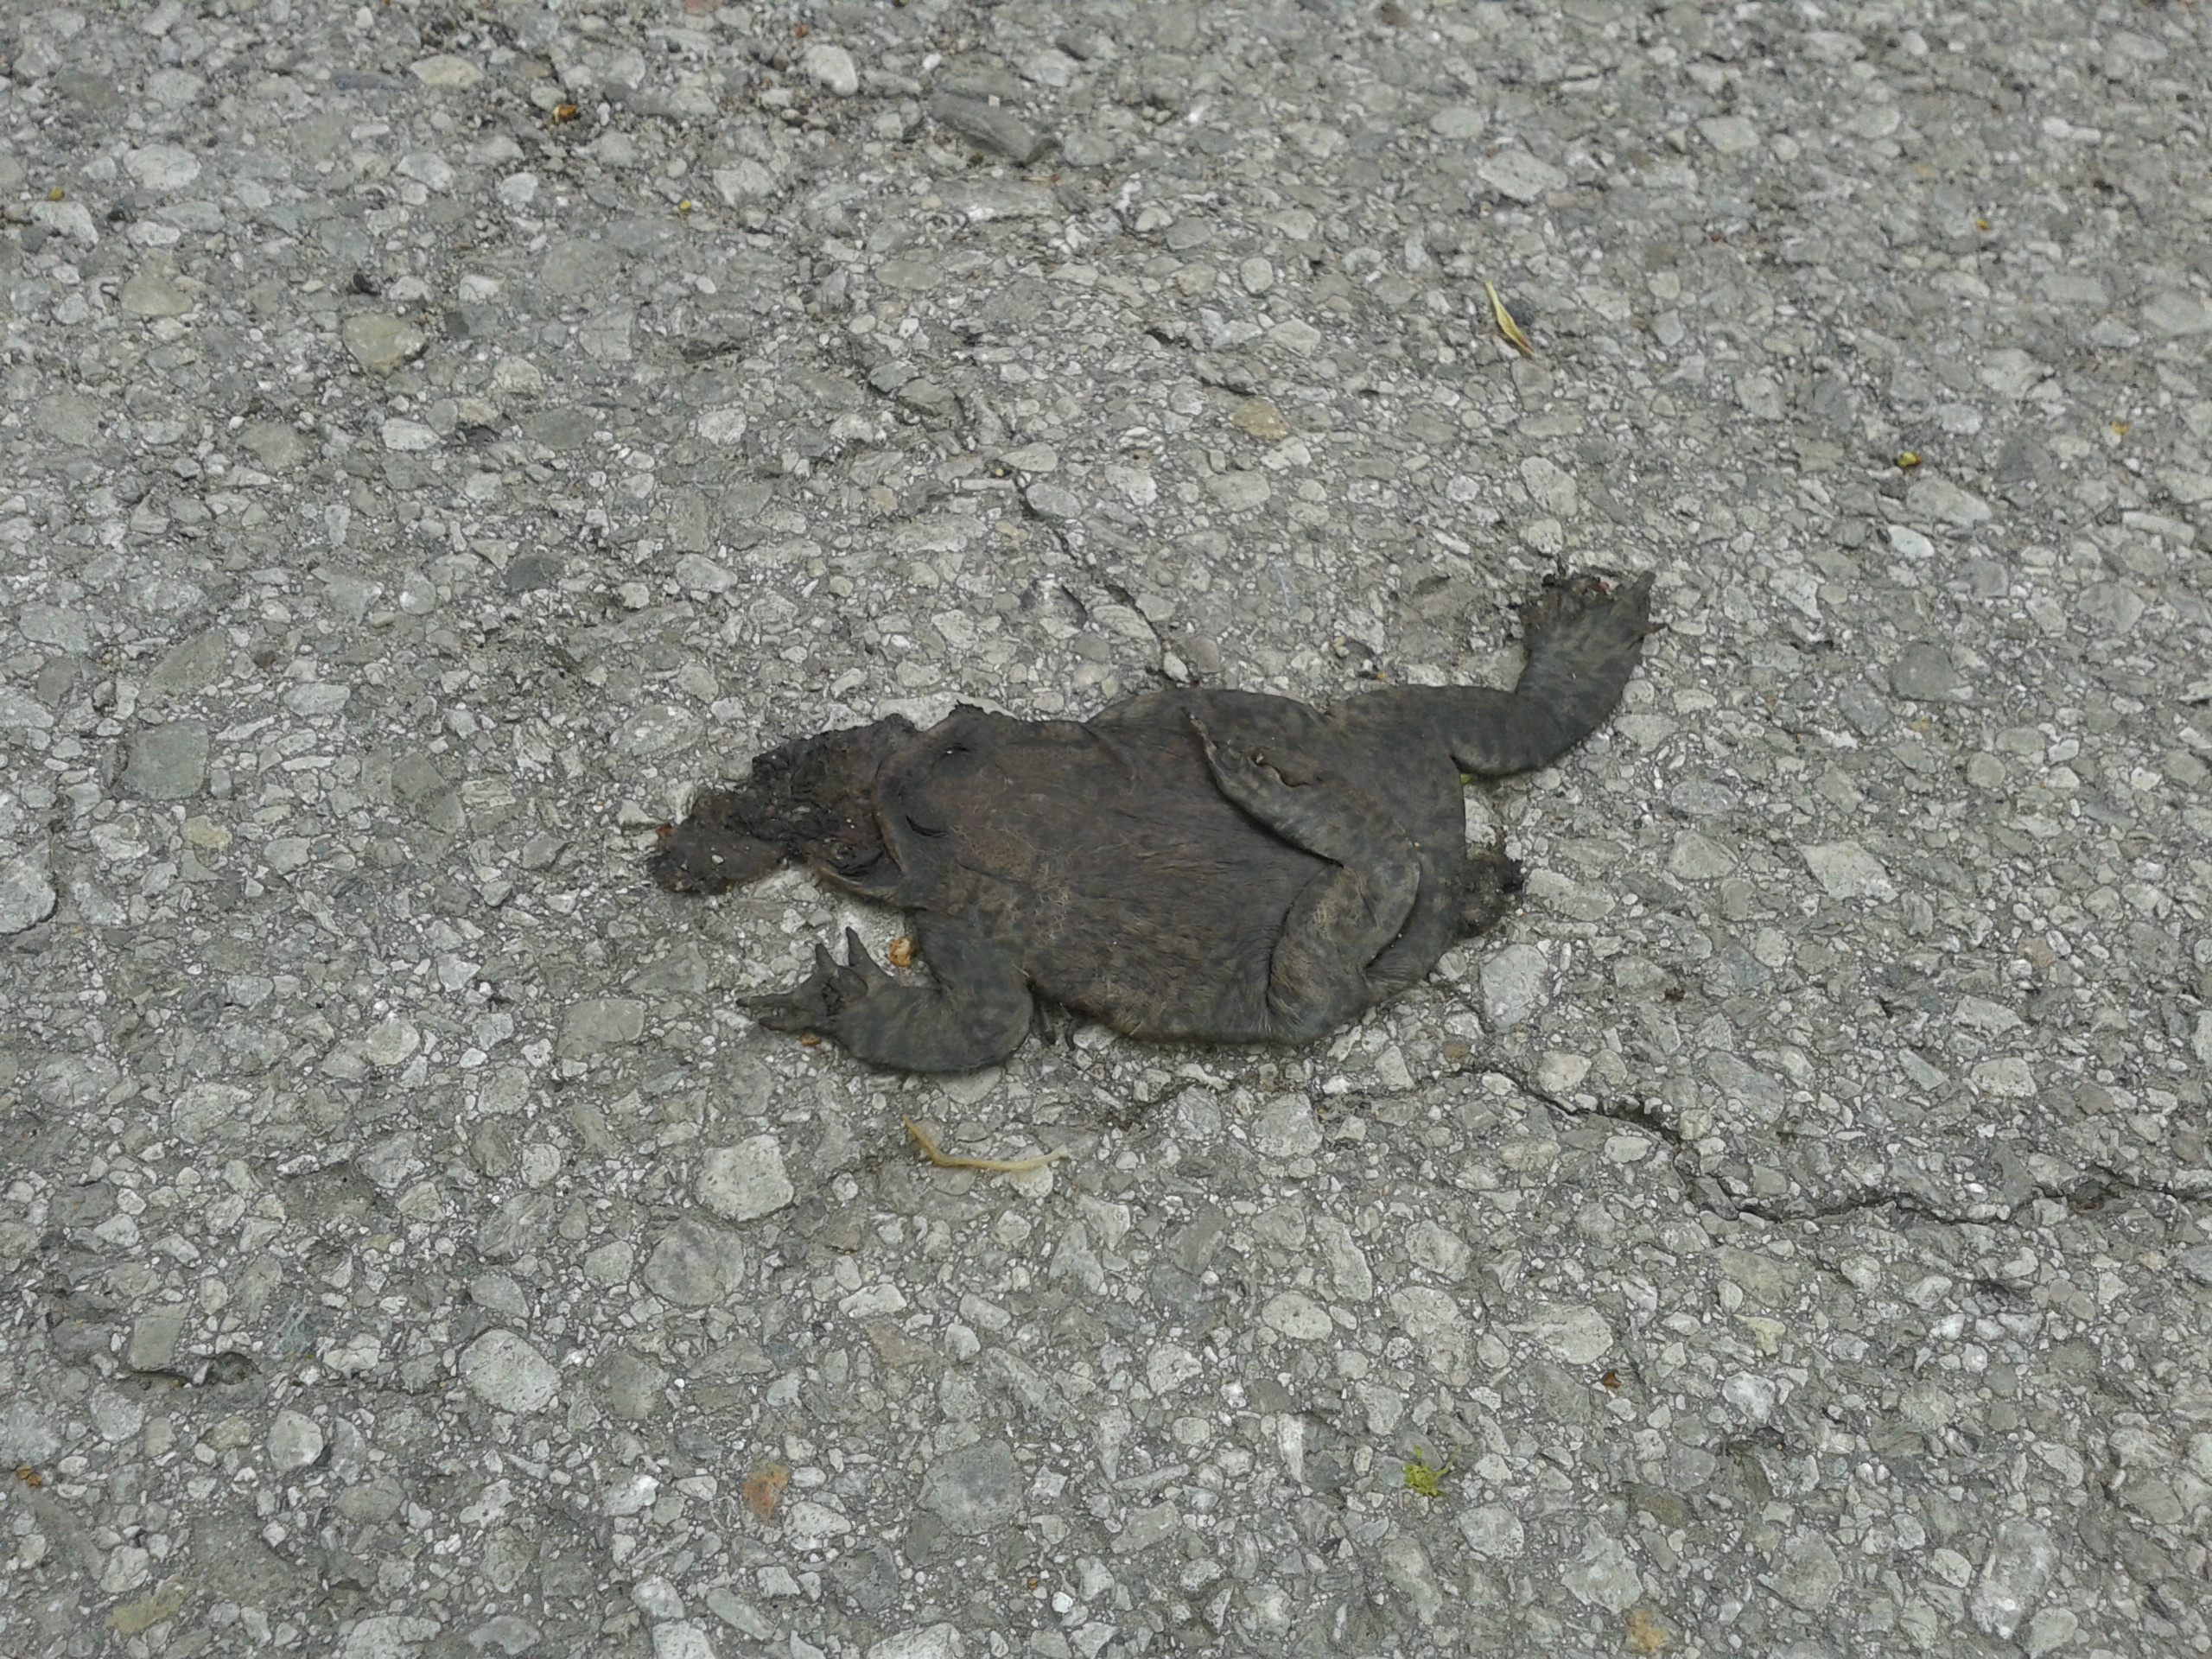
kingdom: Animalia
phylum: Chordata
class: Amphibia
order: Anura
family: Bufonidae
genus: Bufo
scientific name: Bufo bufo
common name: Common toad
